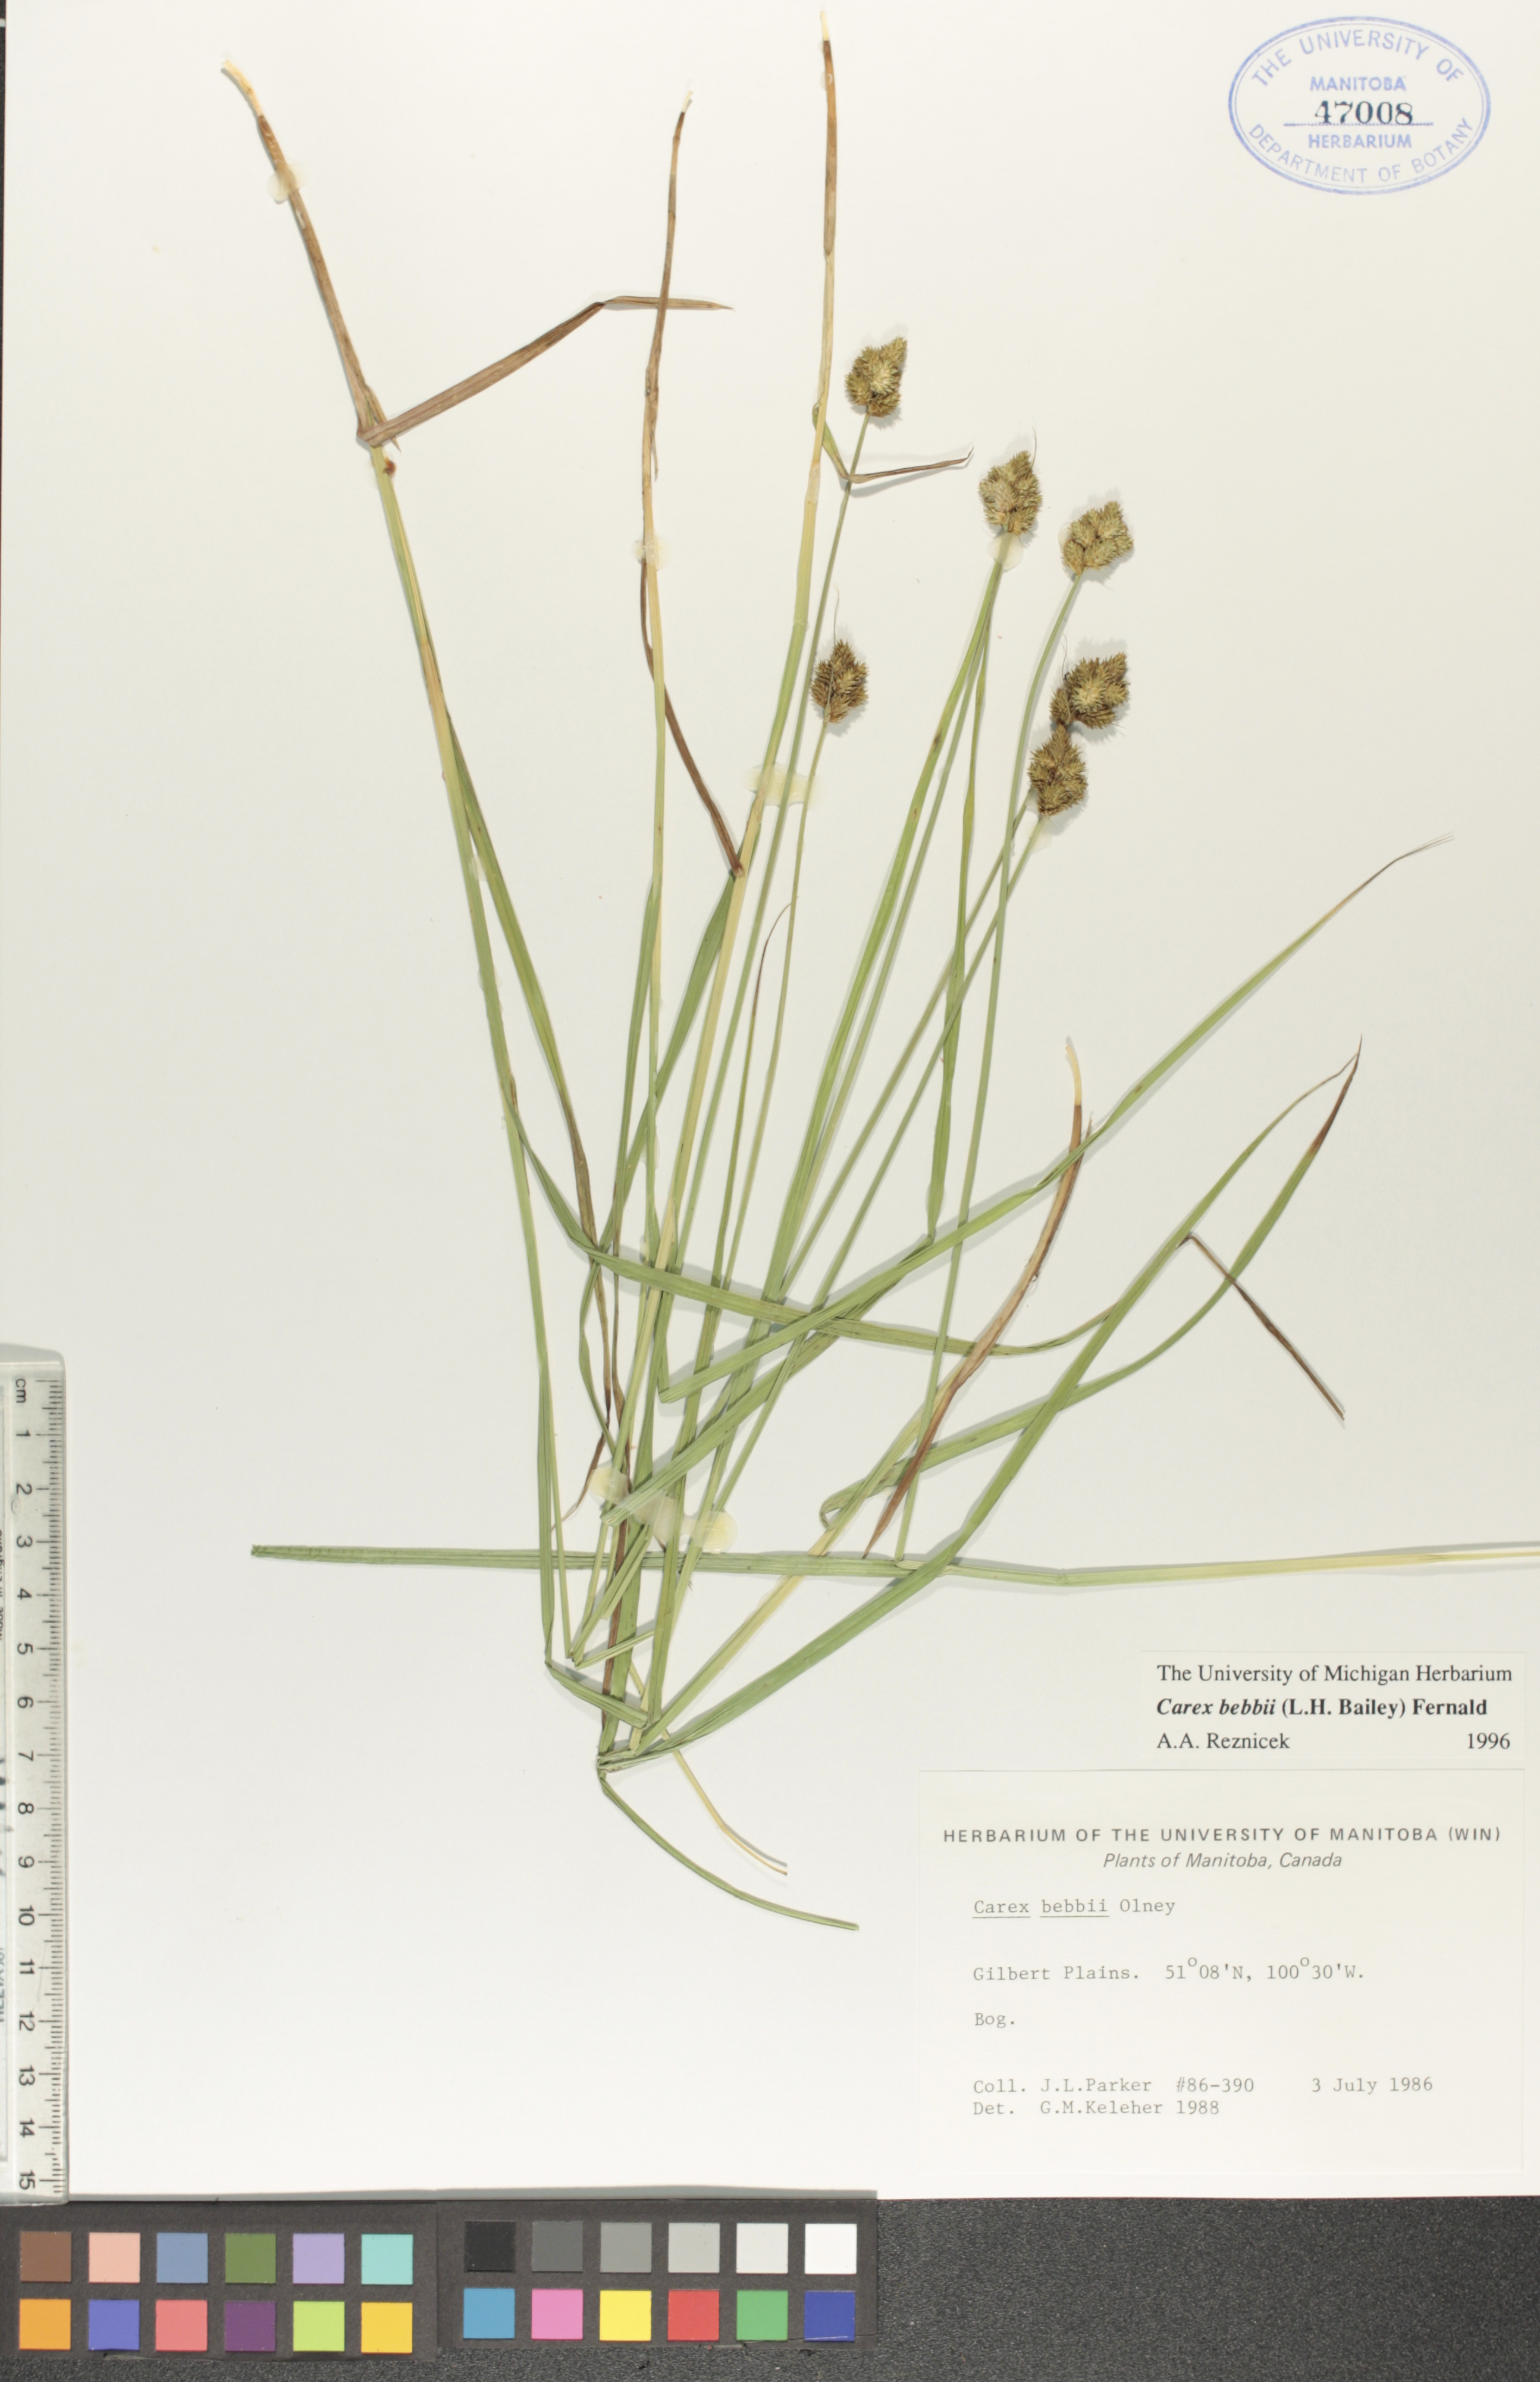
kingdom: Plantae
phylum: Tracheophyta
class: Liliopsida
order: Poales
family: Cyperaceae
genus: Carex
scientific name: Carex bebbii
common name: Bebb's sedge
